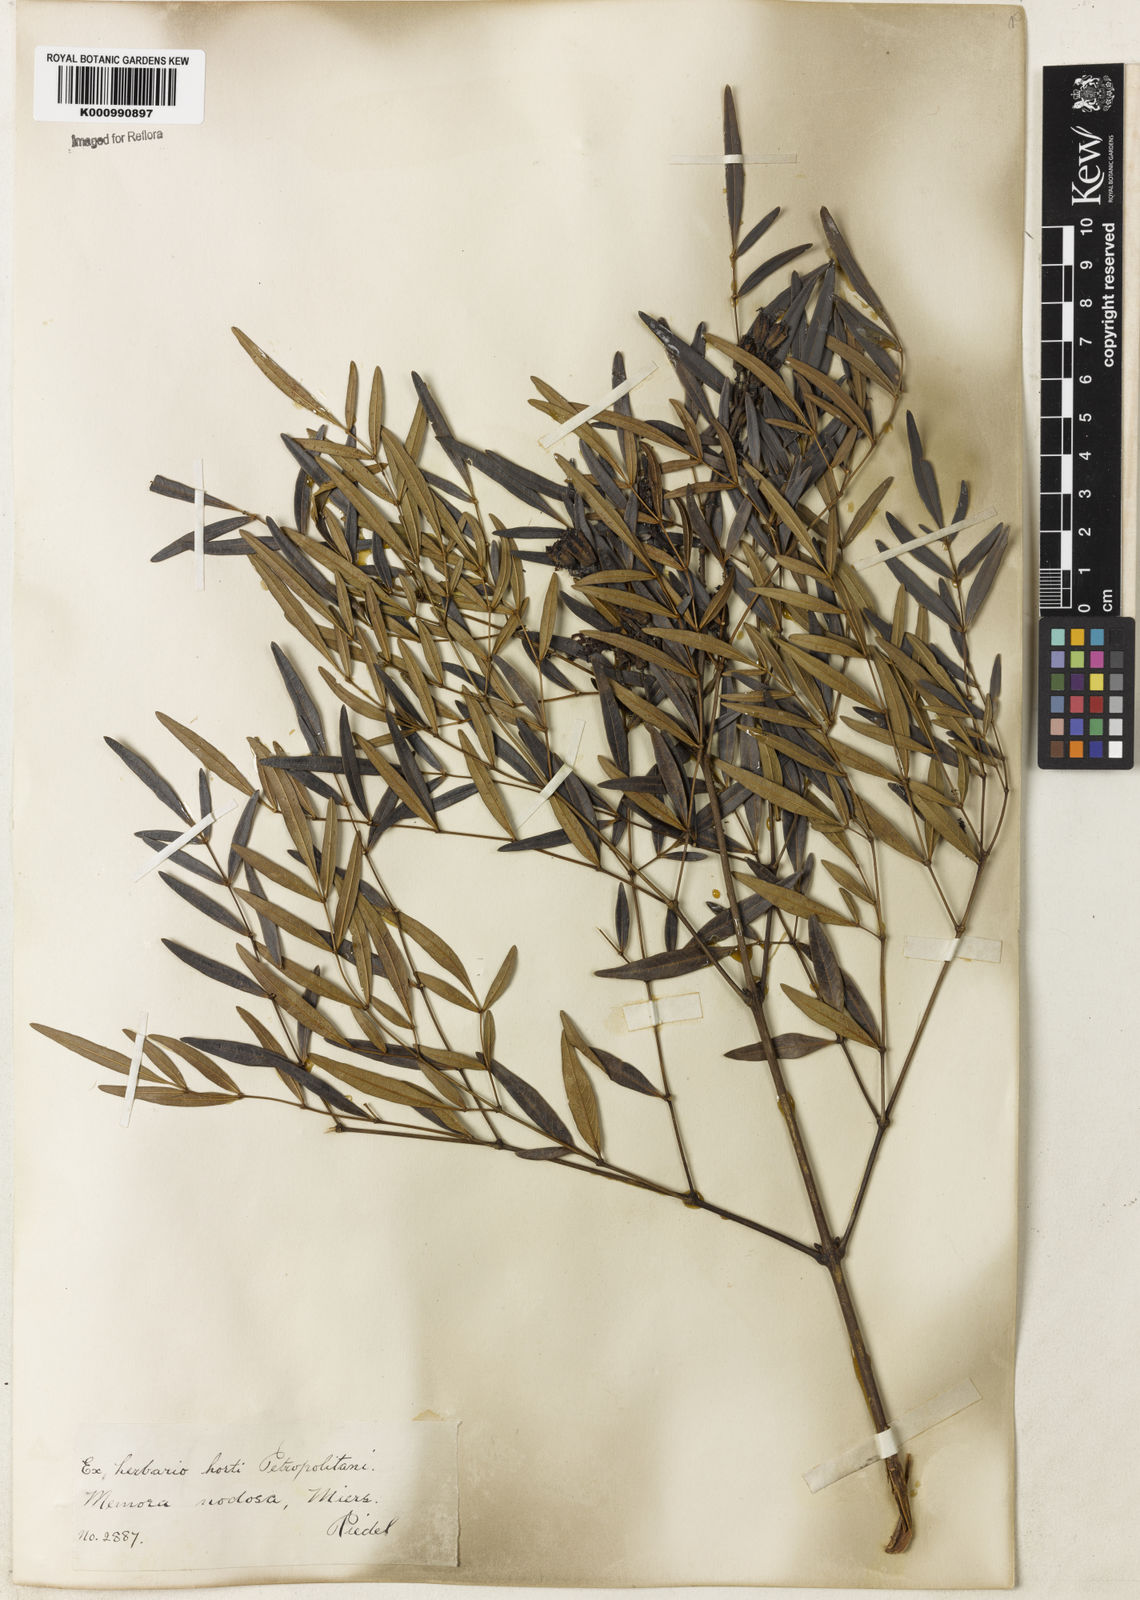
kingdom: Plantae
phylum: Tracheophyta
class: Magnoliopsida
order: Lamiales
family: Bignoniaceae
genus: Adenocalymma
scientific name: Adenocalymma nodosum
